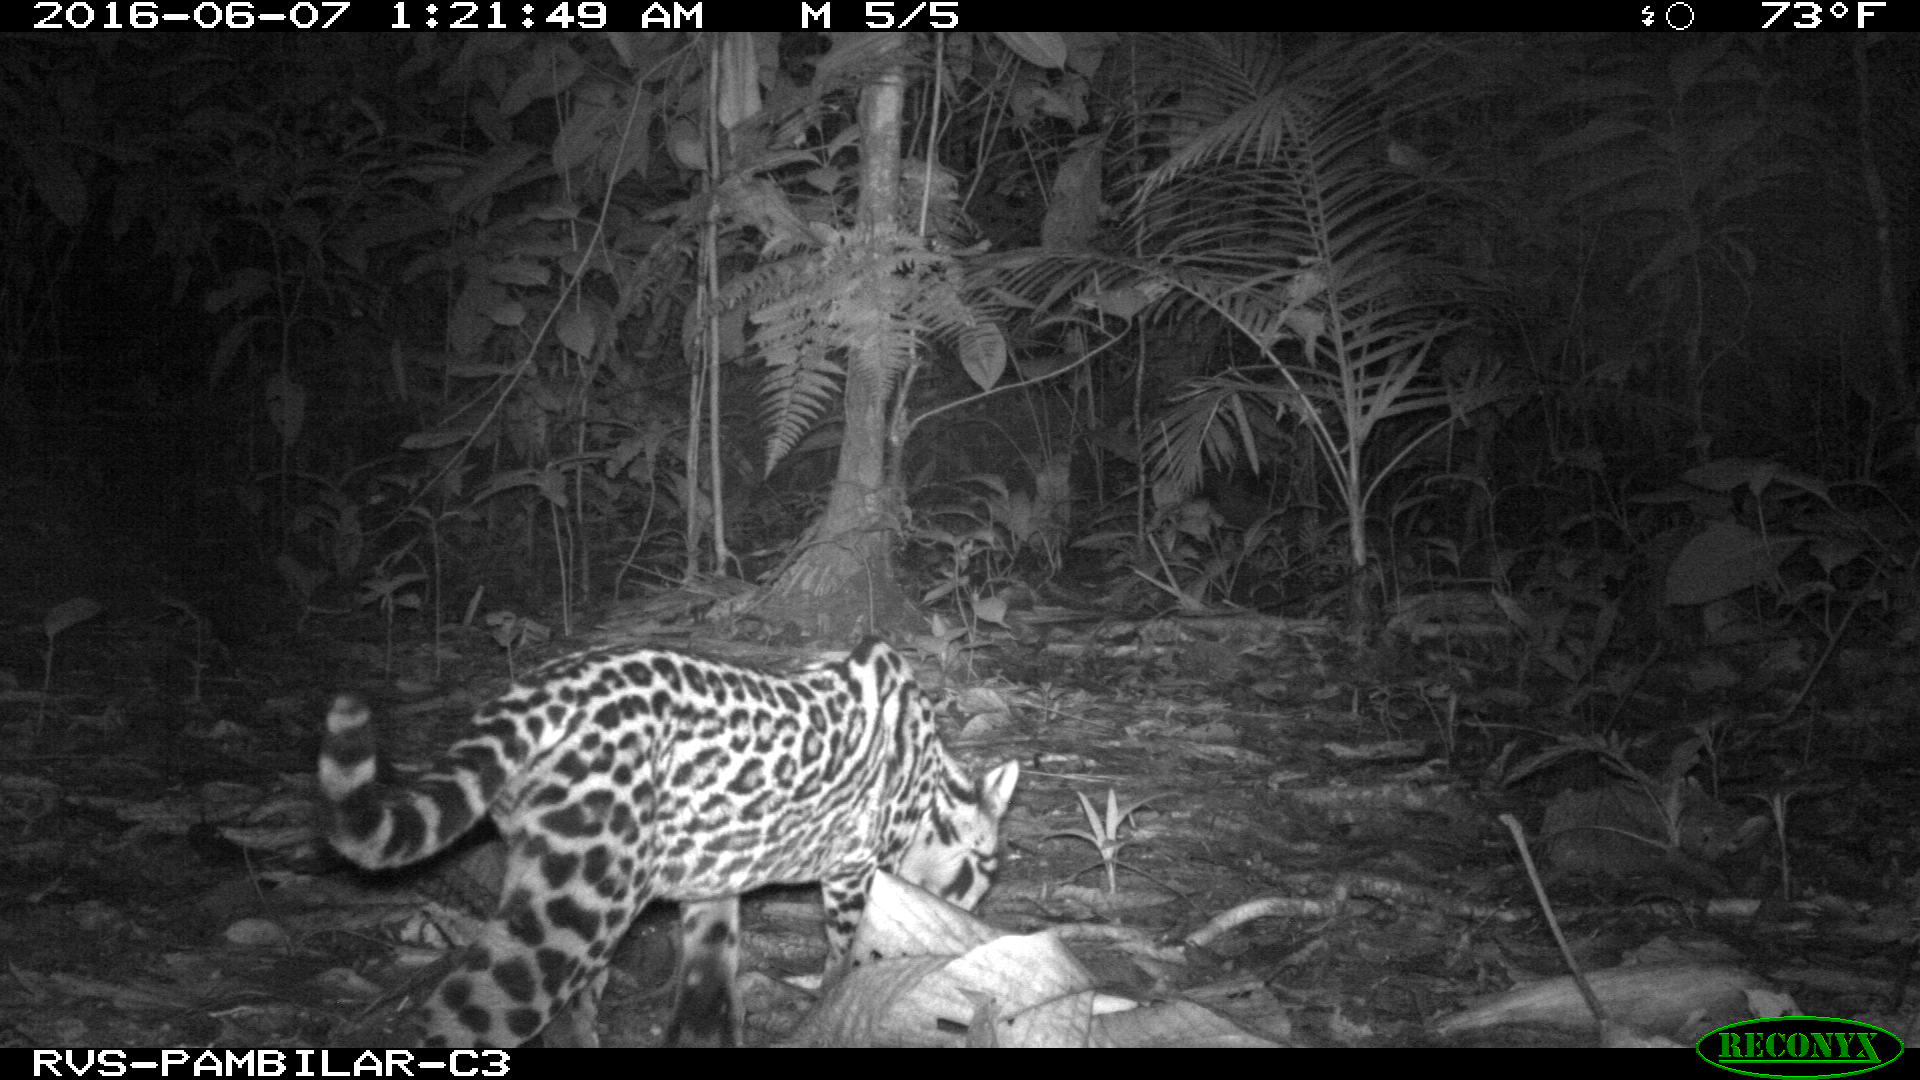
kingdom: Animalia
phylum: Chordata
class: Mammalia
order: Carnivora
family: Felidae
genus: Leopardus
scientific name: Leopardus pardalis
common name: Ocelot
